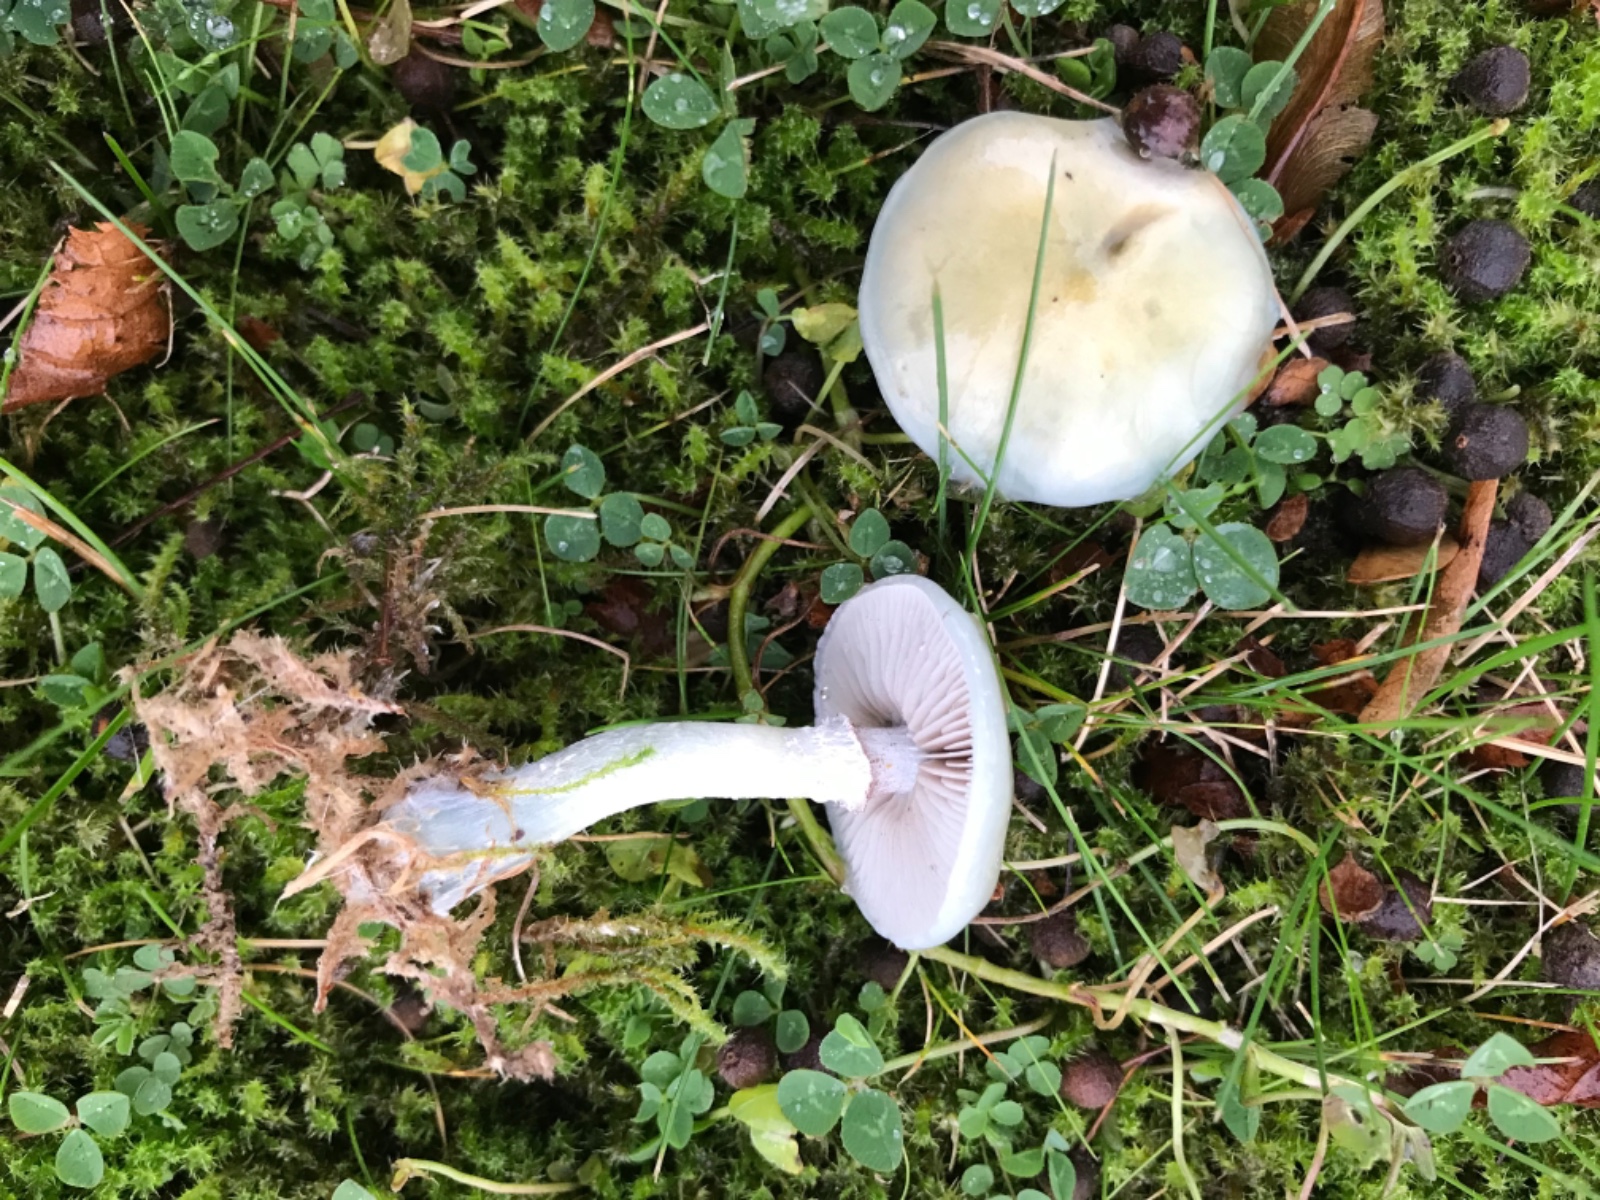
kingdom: Fungi
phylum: Basidiomycota
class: Agaricomycetes
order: Agaricales
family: Strophariaceae
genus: Stropharia
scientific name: Stropharia pseudocyanea
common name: blegblå bredblad
